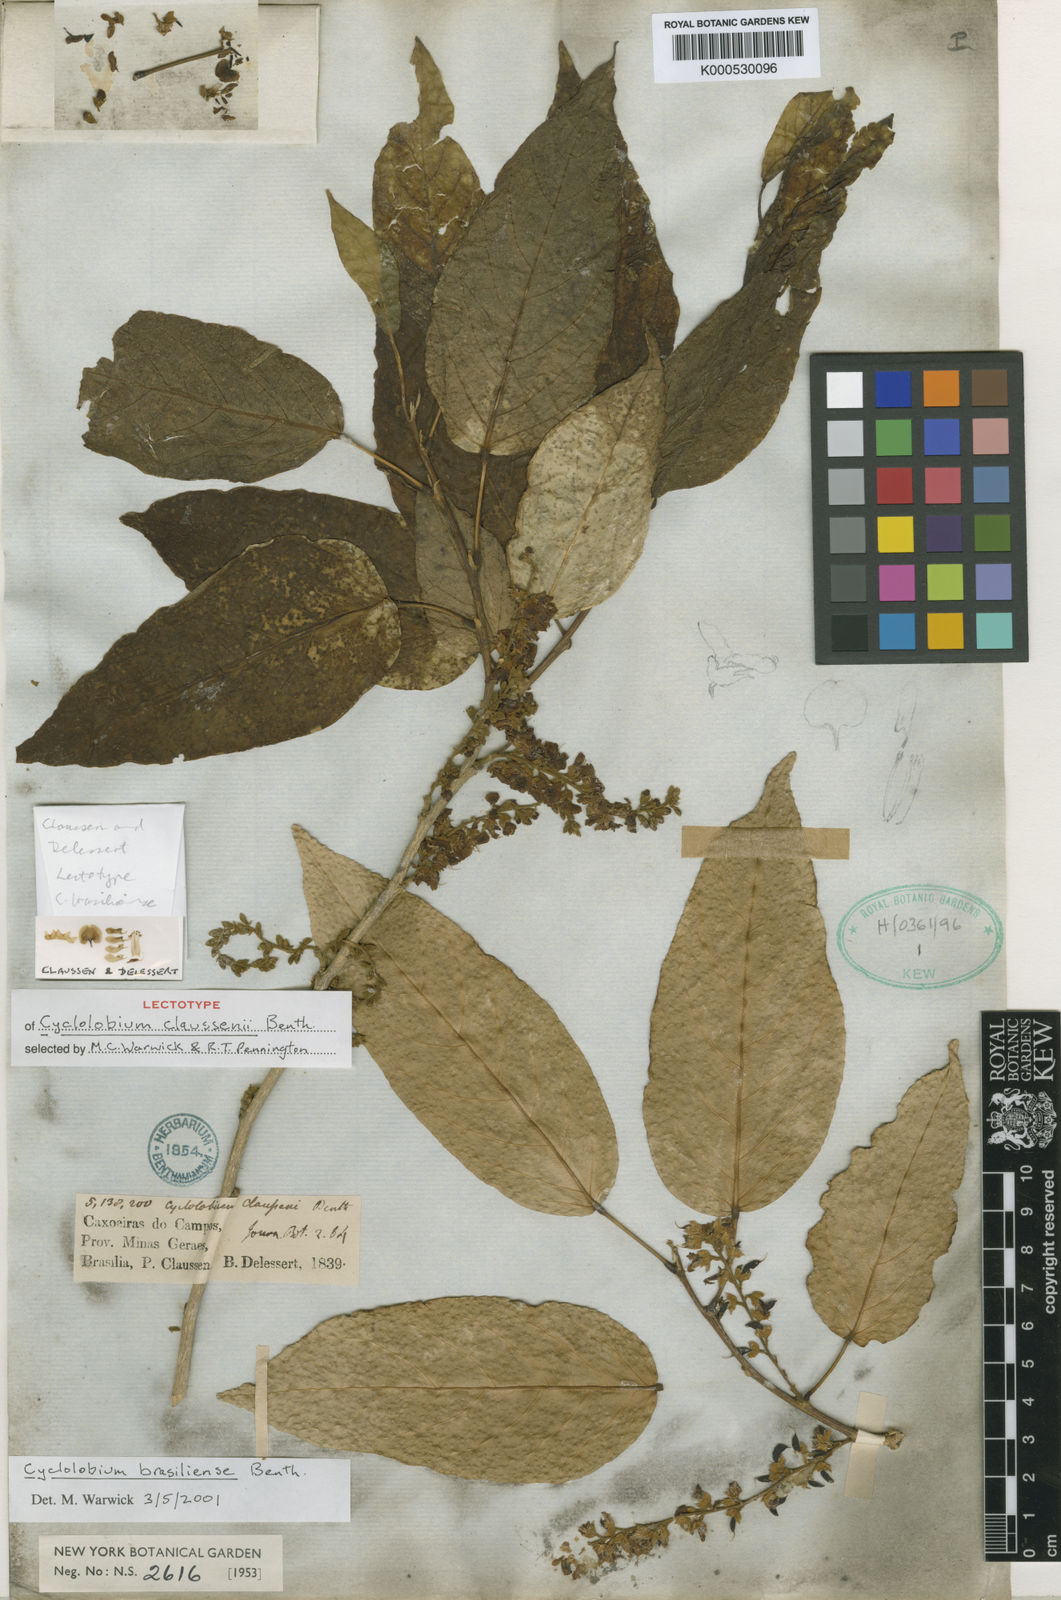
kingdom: Plantae
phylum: Tracheophyta
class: Magnoliopsida
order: Fabales
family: Fabaceae
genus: Cyclolobium
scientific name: Cyclolobium brasiliense
